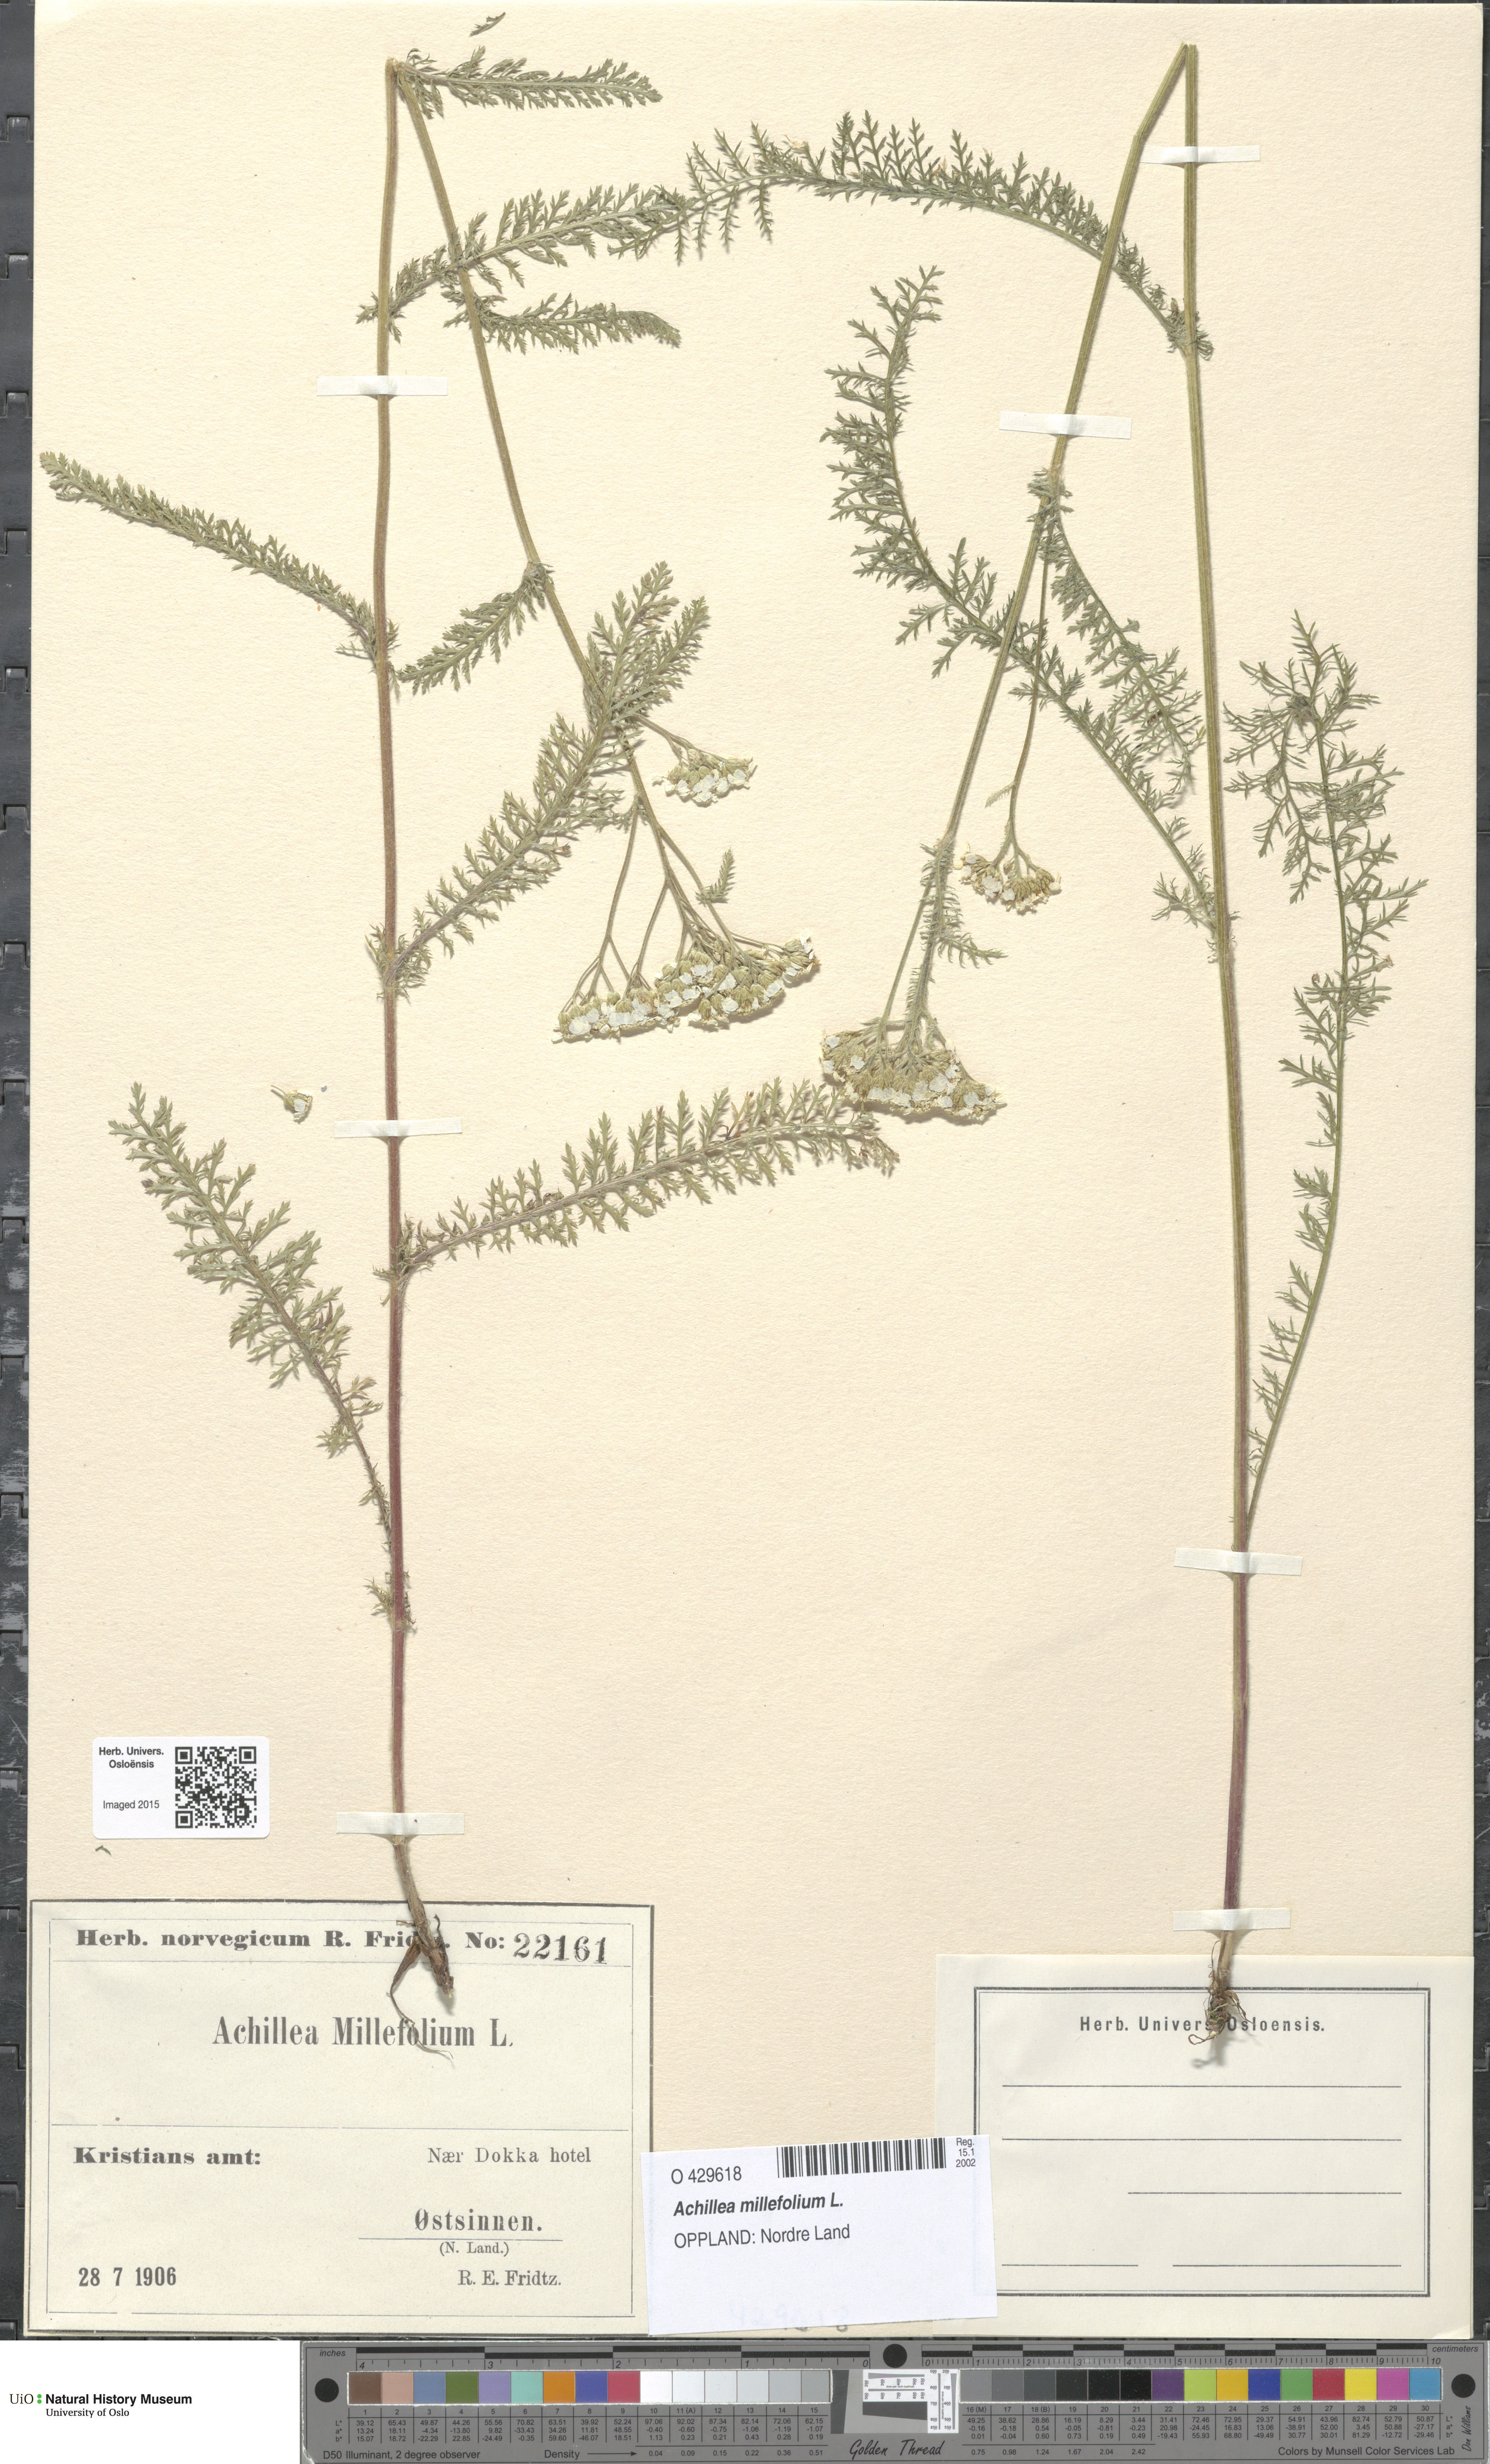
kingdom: Plantae
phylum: Tracheophyta
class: Magnoliopsida
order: Asterales
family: Asteraceae
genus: Achillea
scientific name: Achillea millefolium
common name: Yarrow
